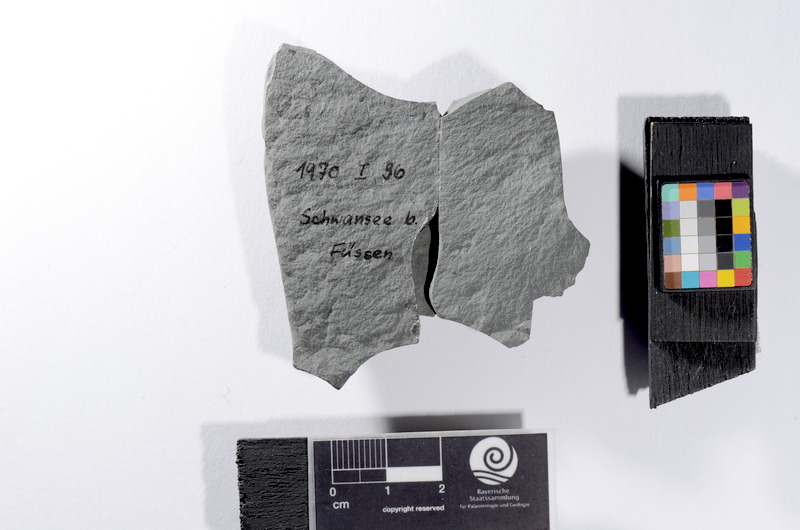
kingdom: Animalia
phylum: Chordata
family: Palaeoniscidae
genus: Gyrolepis
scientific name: Gyrolepis
